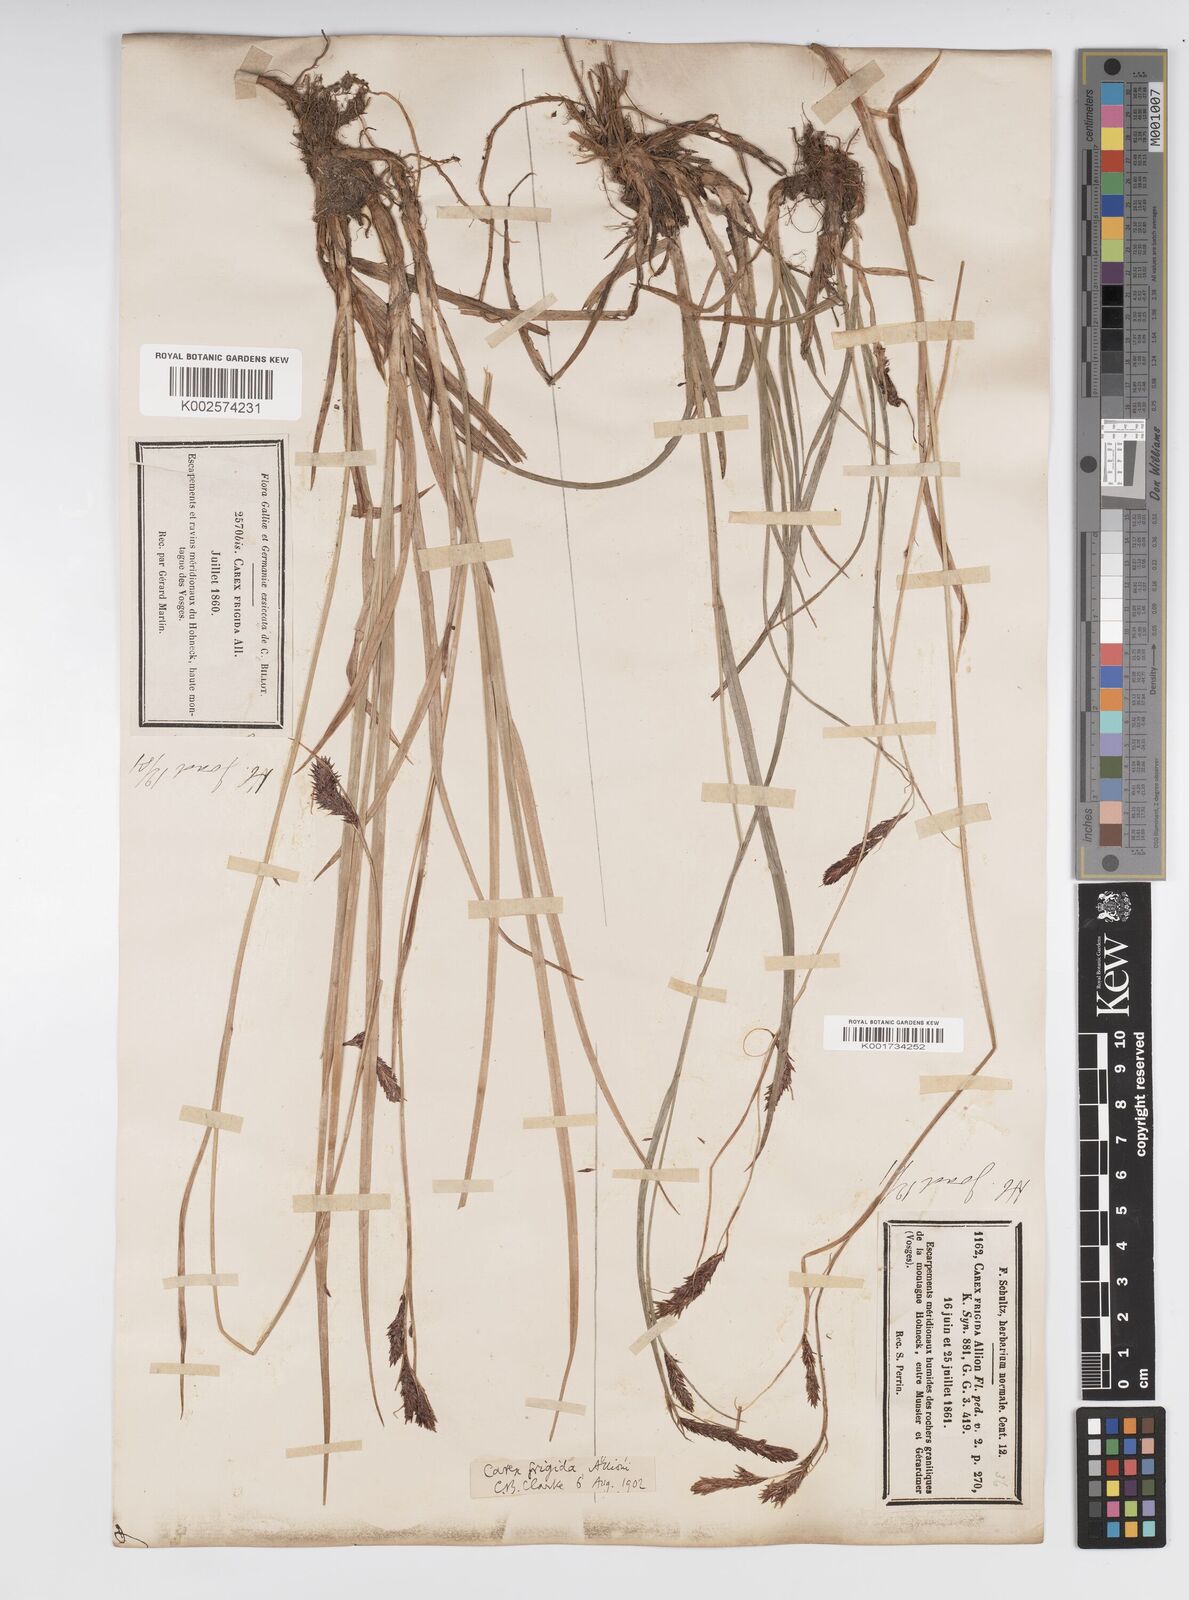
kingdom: Plantae
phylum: Tracheophyta
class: Liliopsida
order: Poales
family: Cyperaceae
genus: Carex
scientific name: Carex frigida
